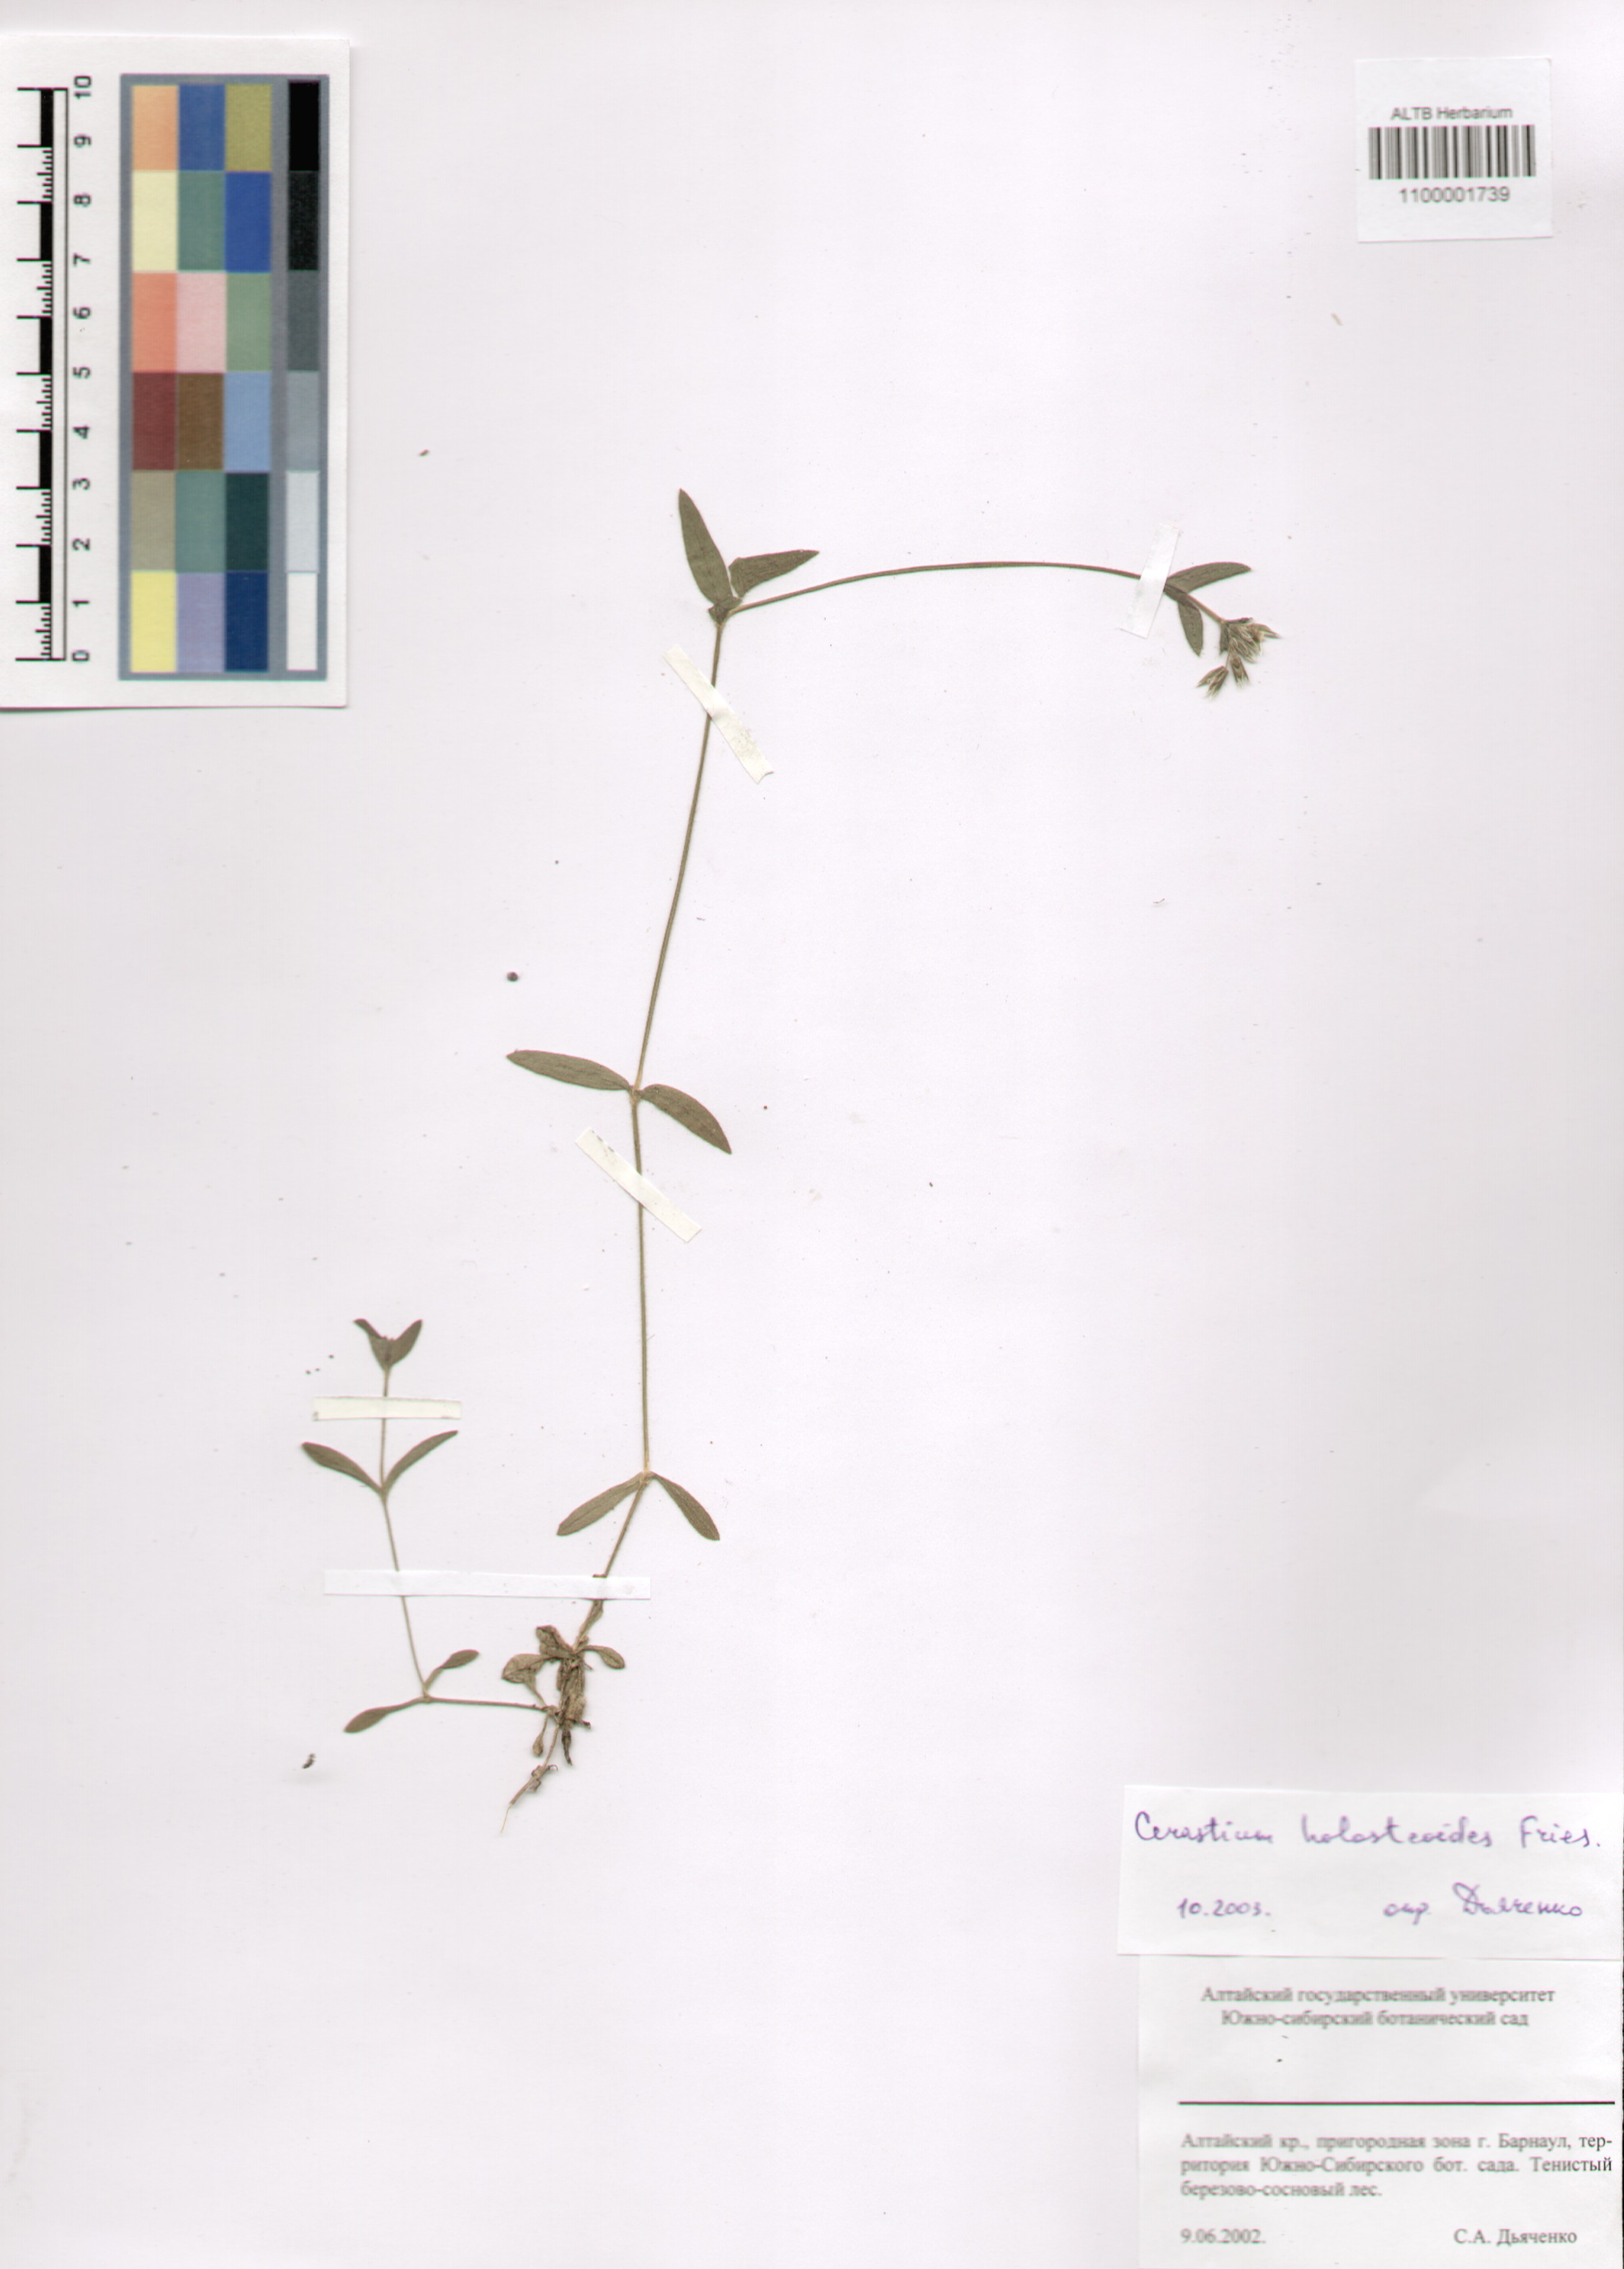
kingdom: Plantae
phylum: Tracheophyta
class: Magnoliopsida
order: Caryophyllales
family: Caryophyllaceae
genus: Cerastium
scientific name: Cerastium holosteoides
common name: Big chickweed
